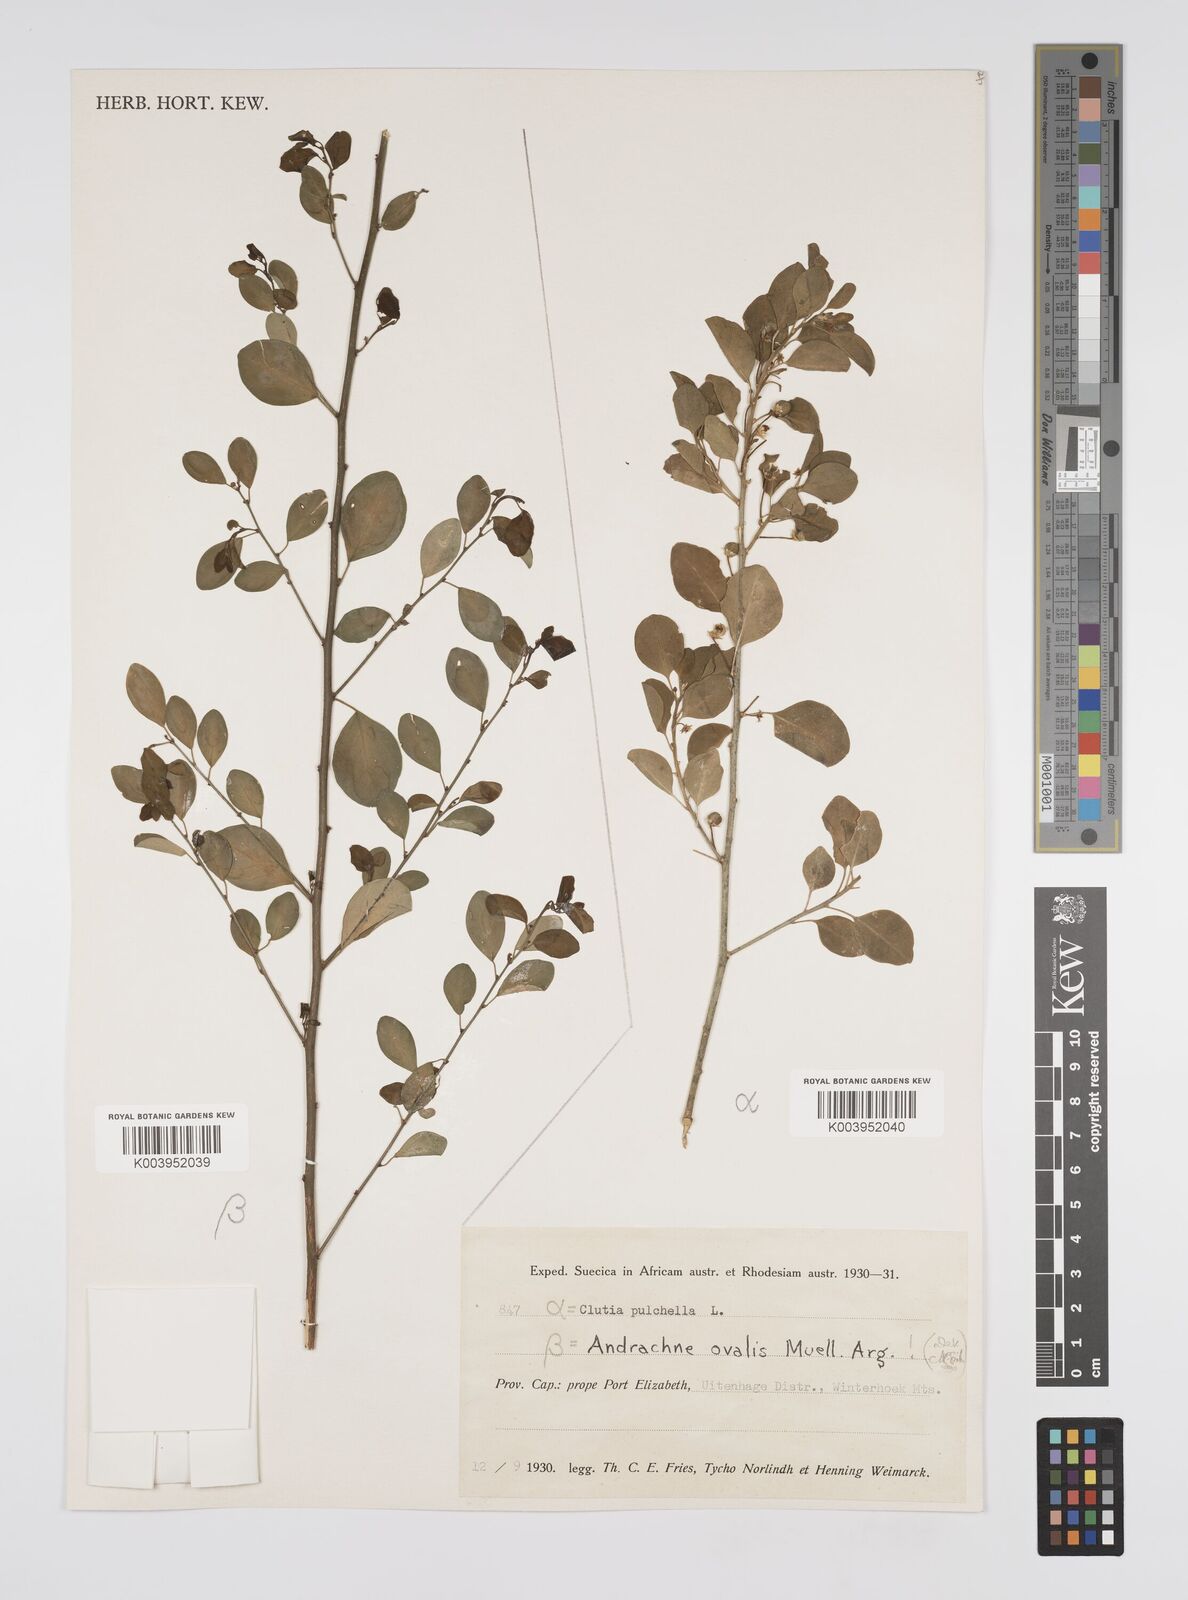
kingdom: Plantae
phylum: Tracheophyta
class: Magnoliopsida
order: Malpighiales
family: Peraceae
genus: Clutia
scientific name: Clutia pulchella
